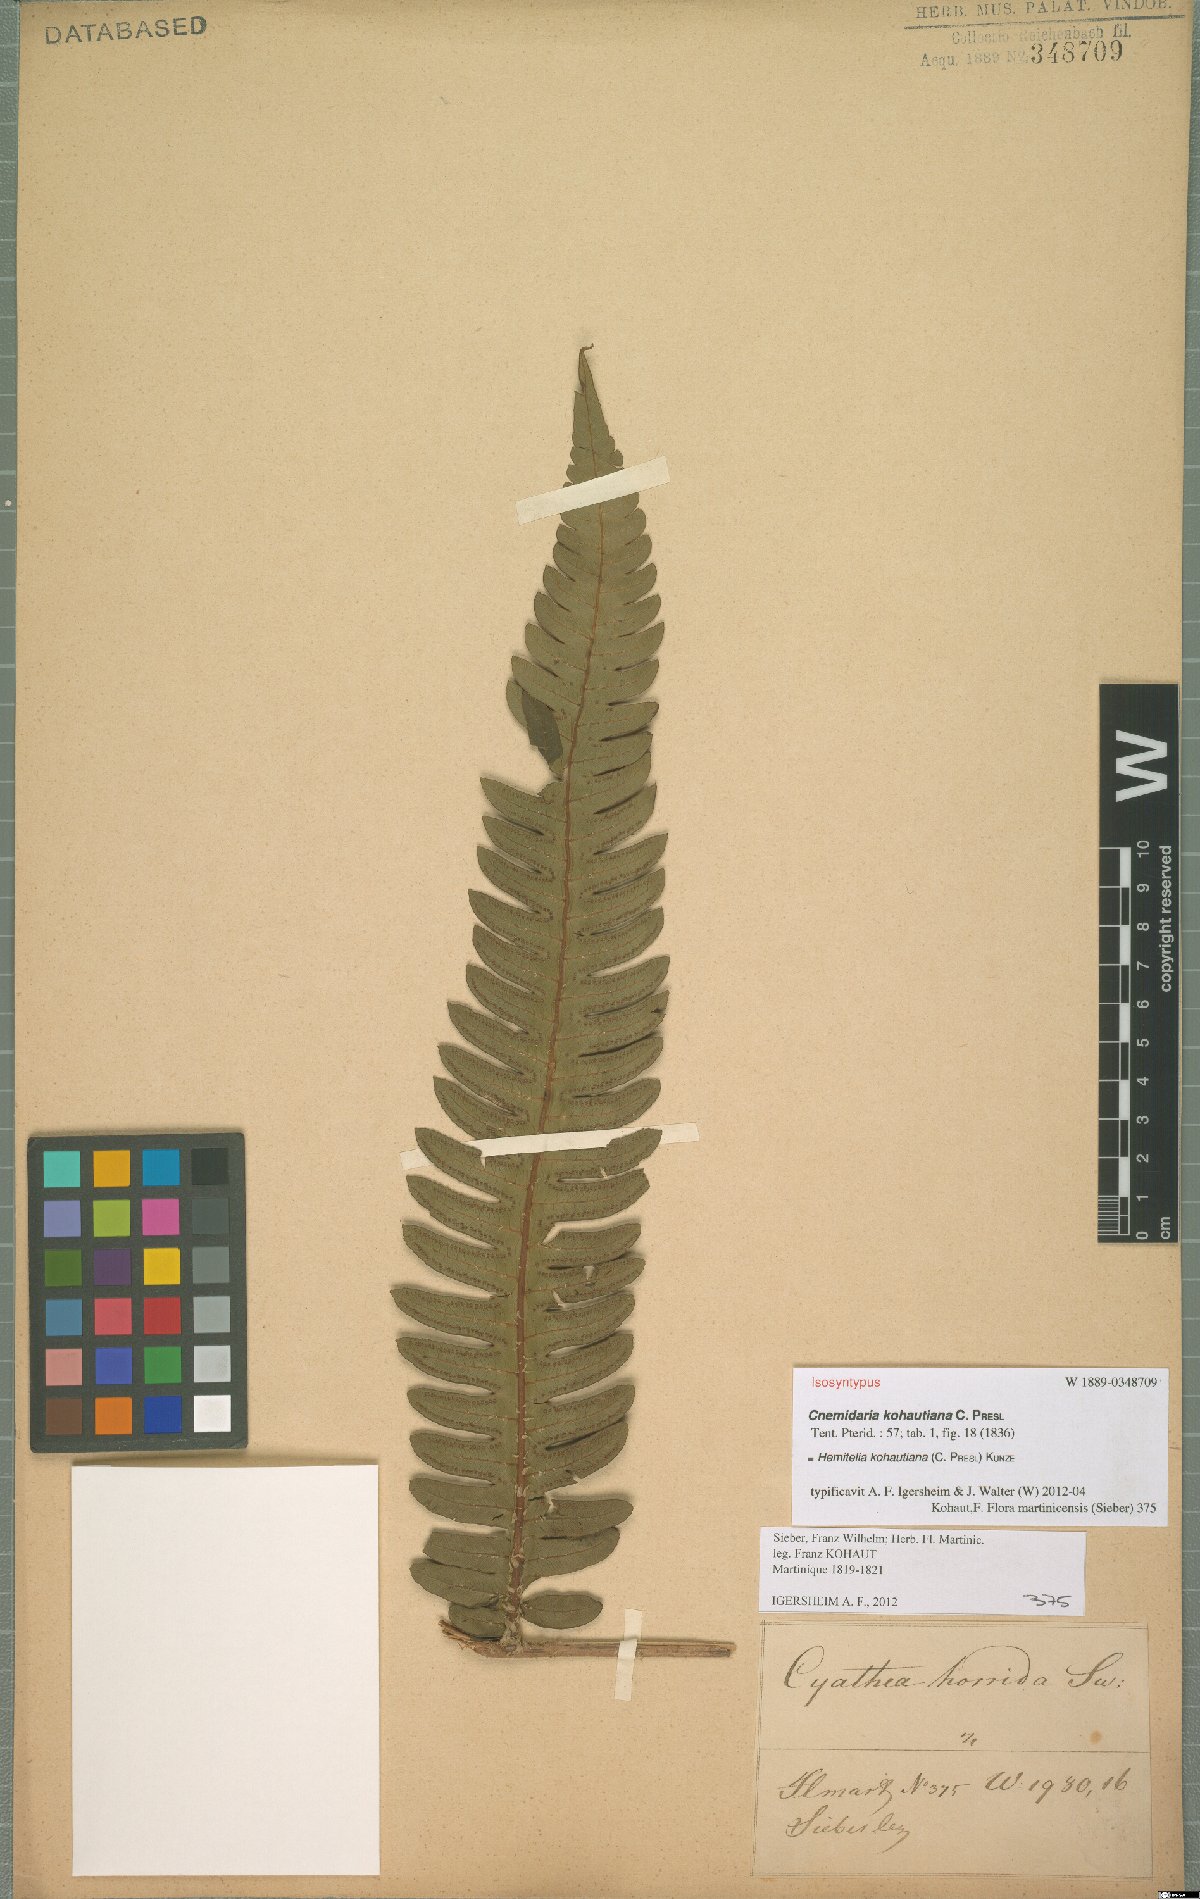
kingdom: Plantae
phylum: Tracheophyta
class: Polypodiopsida
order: Cyatheales
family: Cyatheaceae
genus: Cyathea
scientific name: Cyathea grandifolia
